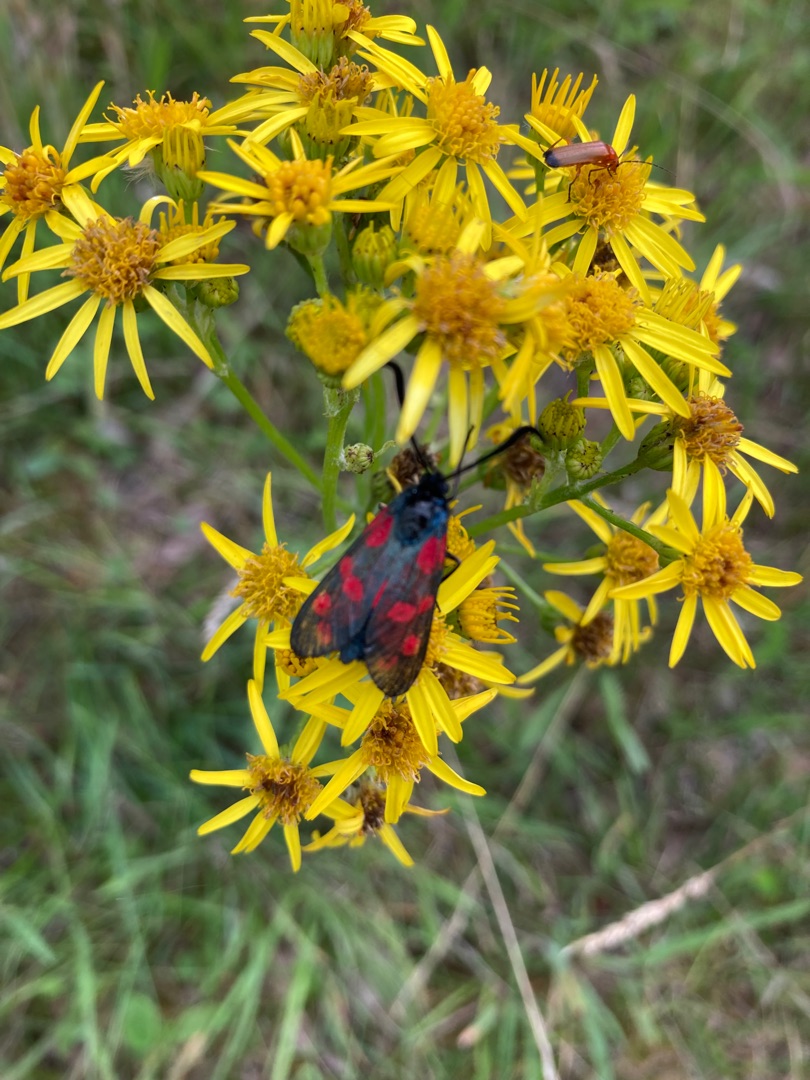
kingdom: Animalia
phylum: Arthropoda
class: Insecta
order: Lepidoptera
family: Zygaenidae
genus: Zygaena
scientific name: Zygaena filipendulae
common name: Seksplettet køllesværmer
